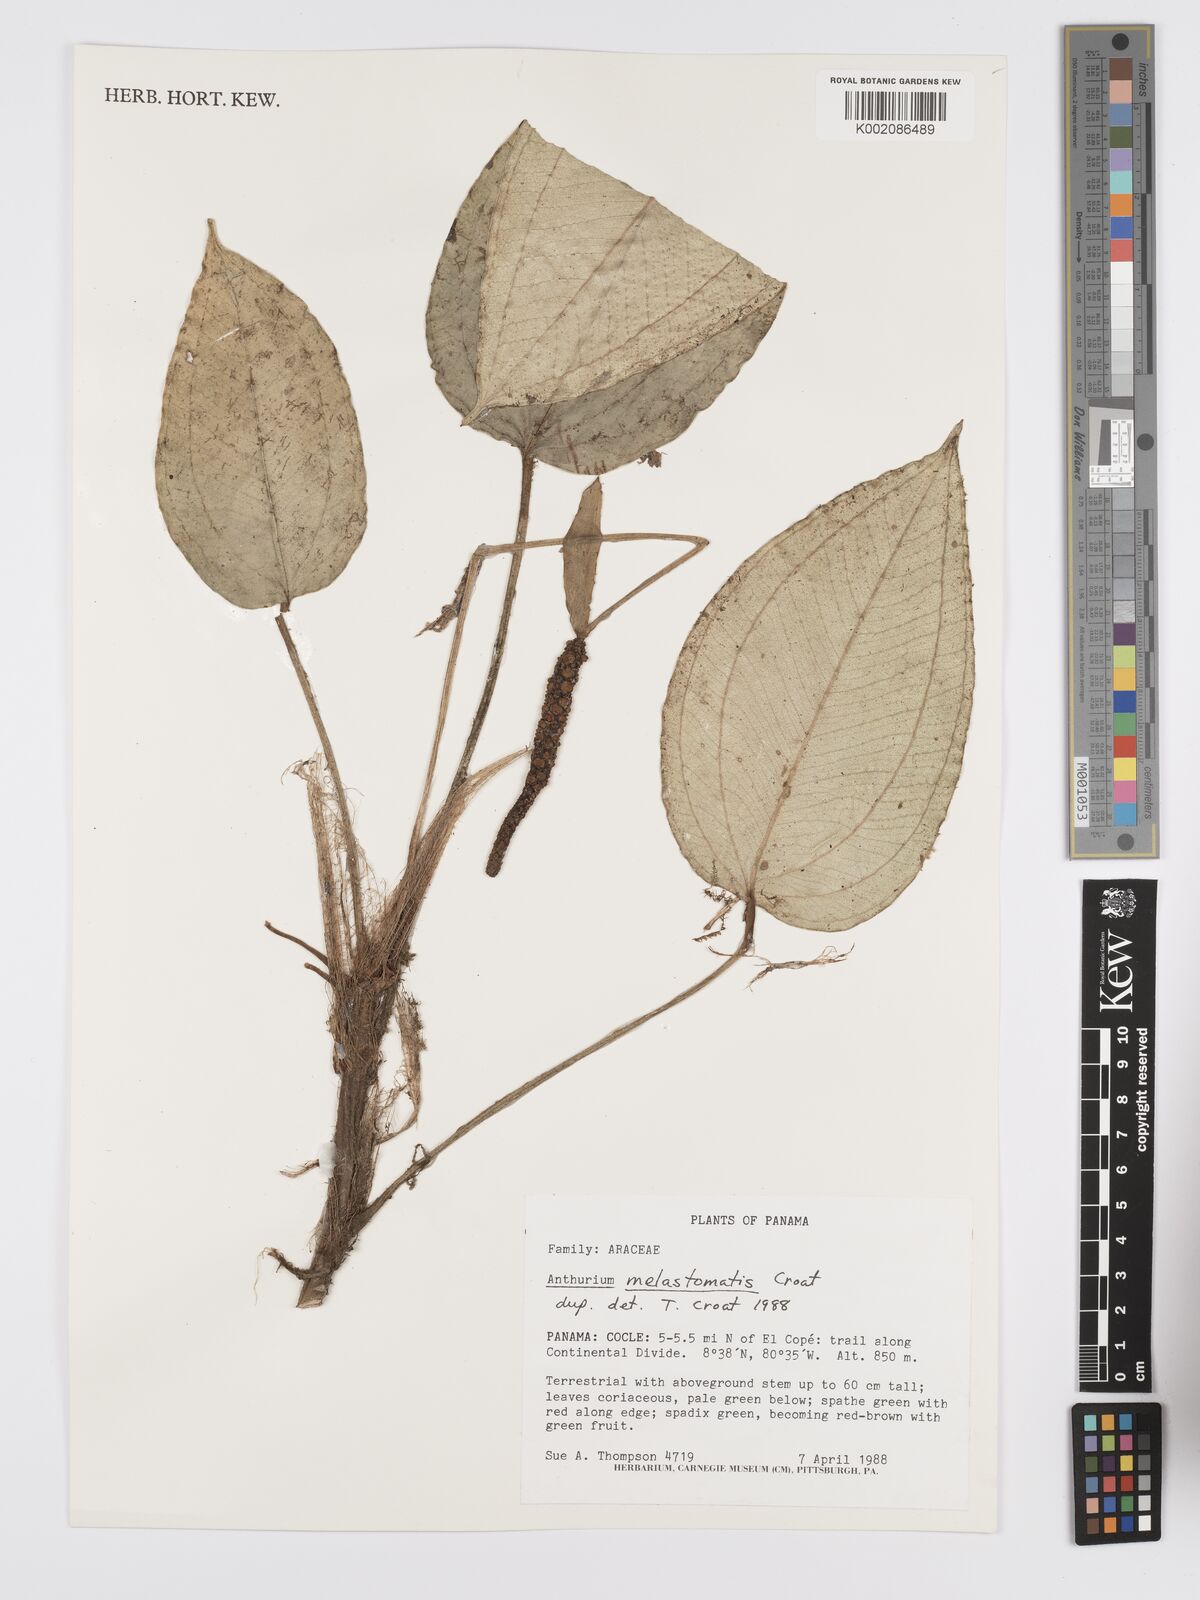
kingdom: Plantae
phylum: Tracheophyta
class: Liliopsida
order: Alismatales
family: Araceae
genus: Anthurium
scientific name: Anthurium melastomatis
